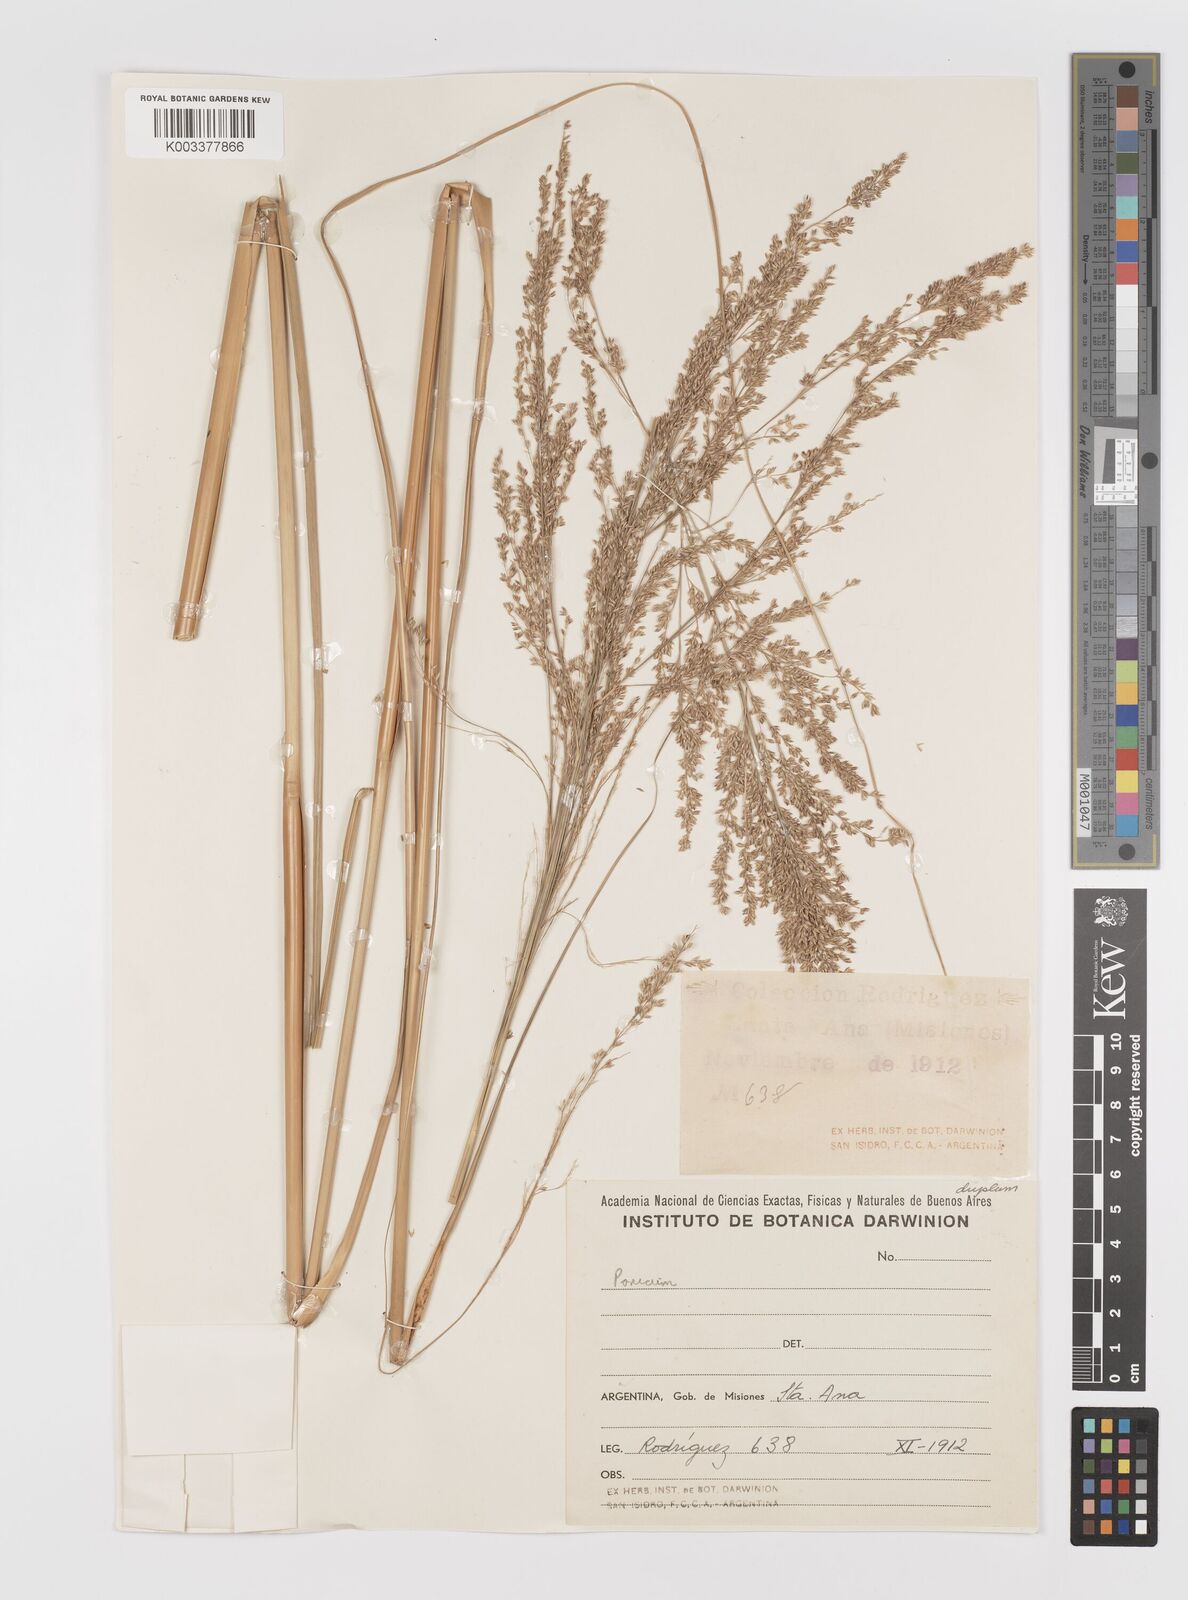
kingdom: Plantae
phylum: Tracheophyta
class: Liliopsida
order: Poales
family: Poaceae
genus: Coleataenia
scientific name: Coleataenia prionitis
